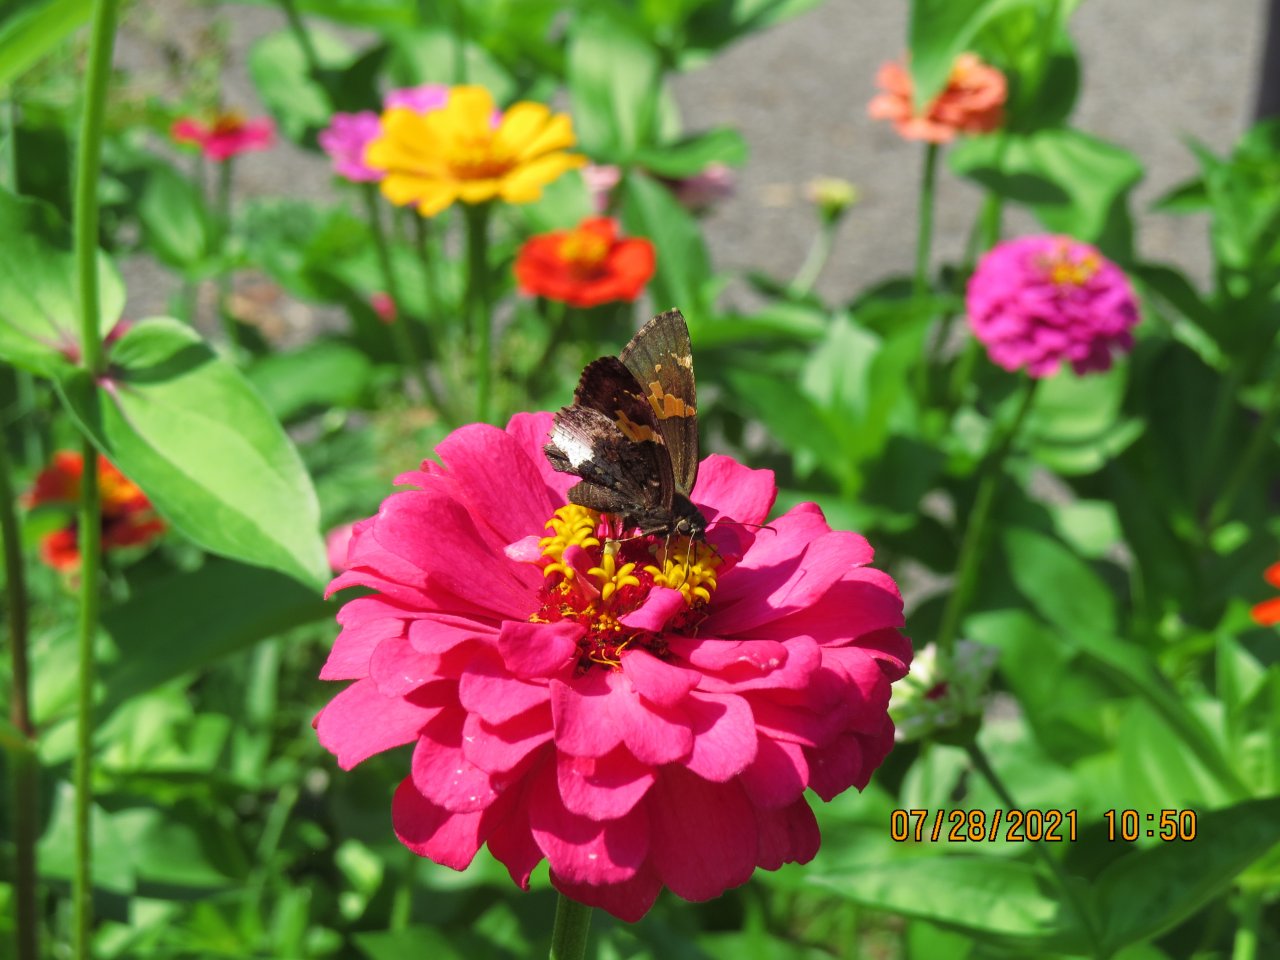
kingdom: Animalia
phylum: Arthropoda
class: Insecta
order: Lepidoptera
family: Hesperiidae
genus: Achalarus
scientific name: Achalarus lyciades
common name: Hoary Edge
